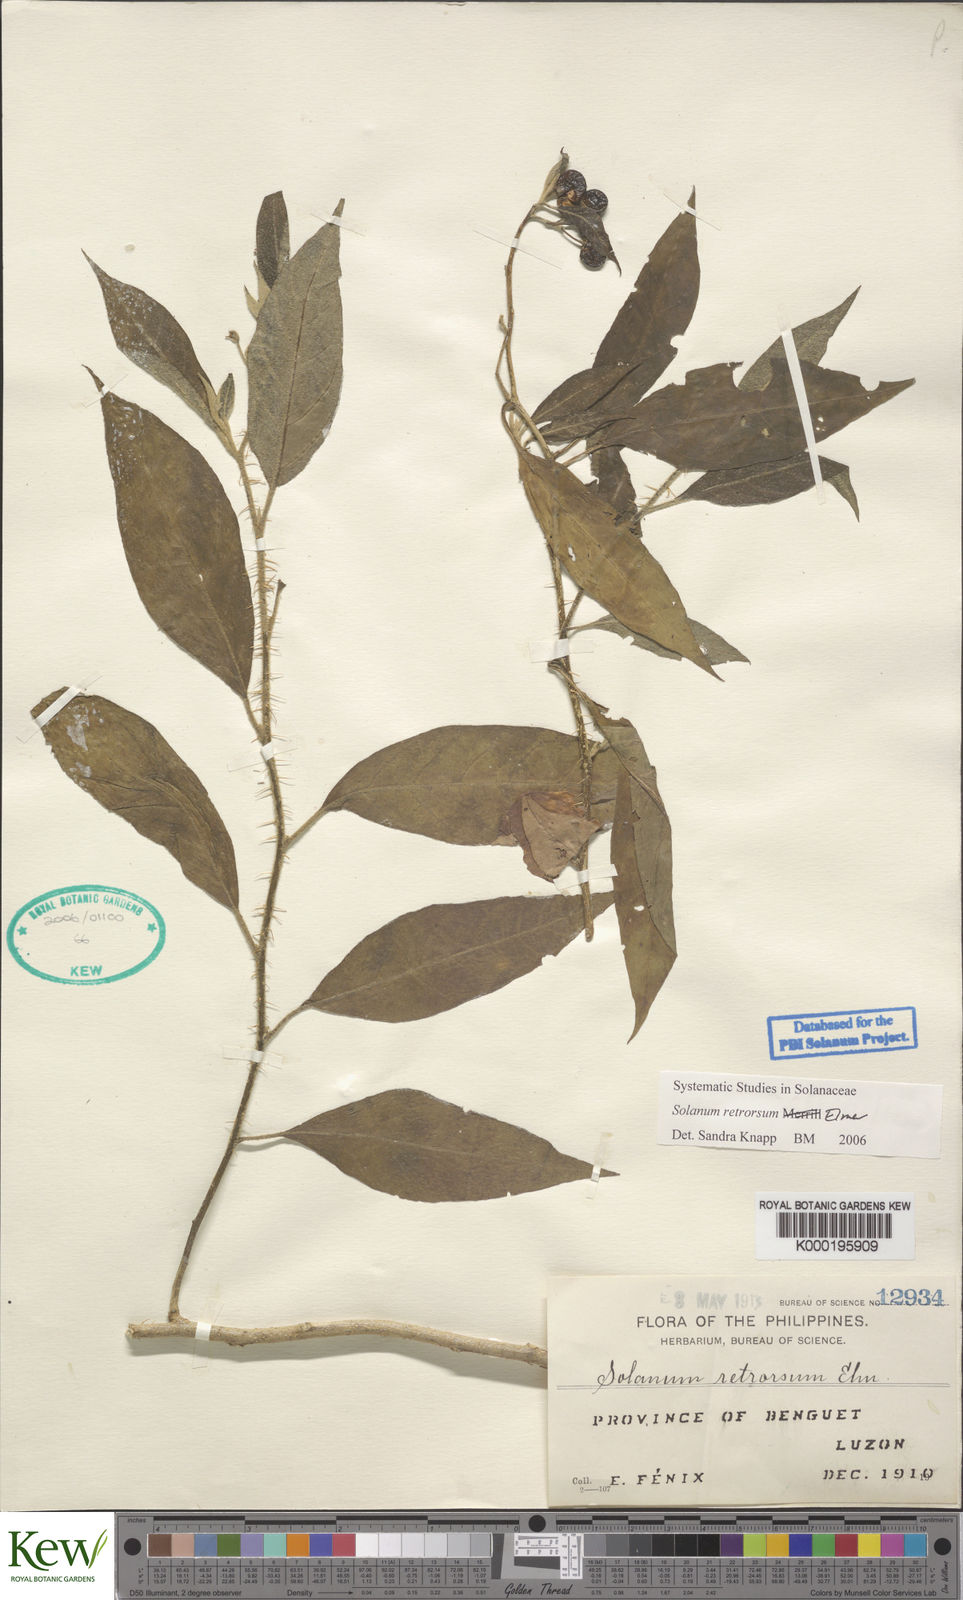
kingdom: Plantae
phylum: Tracheophyta
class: Magnoliopsida
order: Solanales
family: Solanaceae
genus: Solanum
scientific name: Solanum retrorsum
